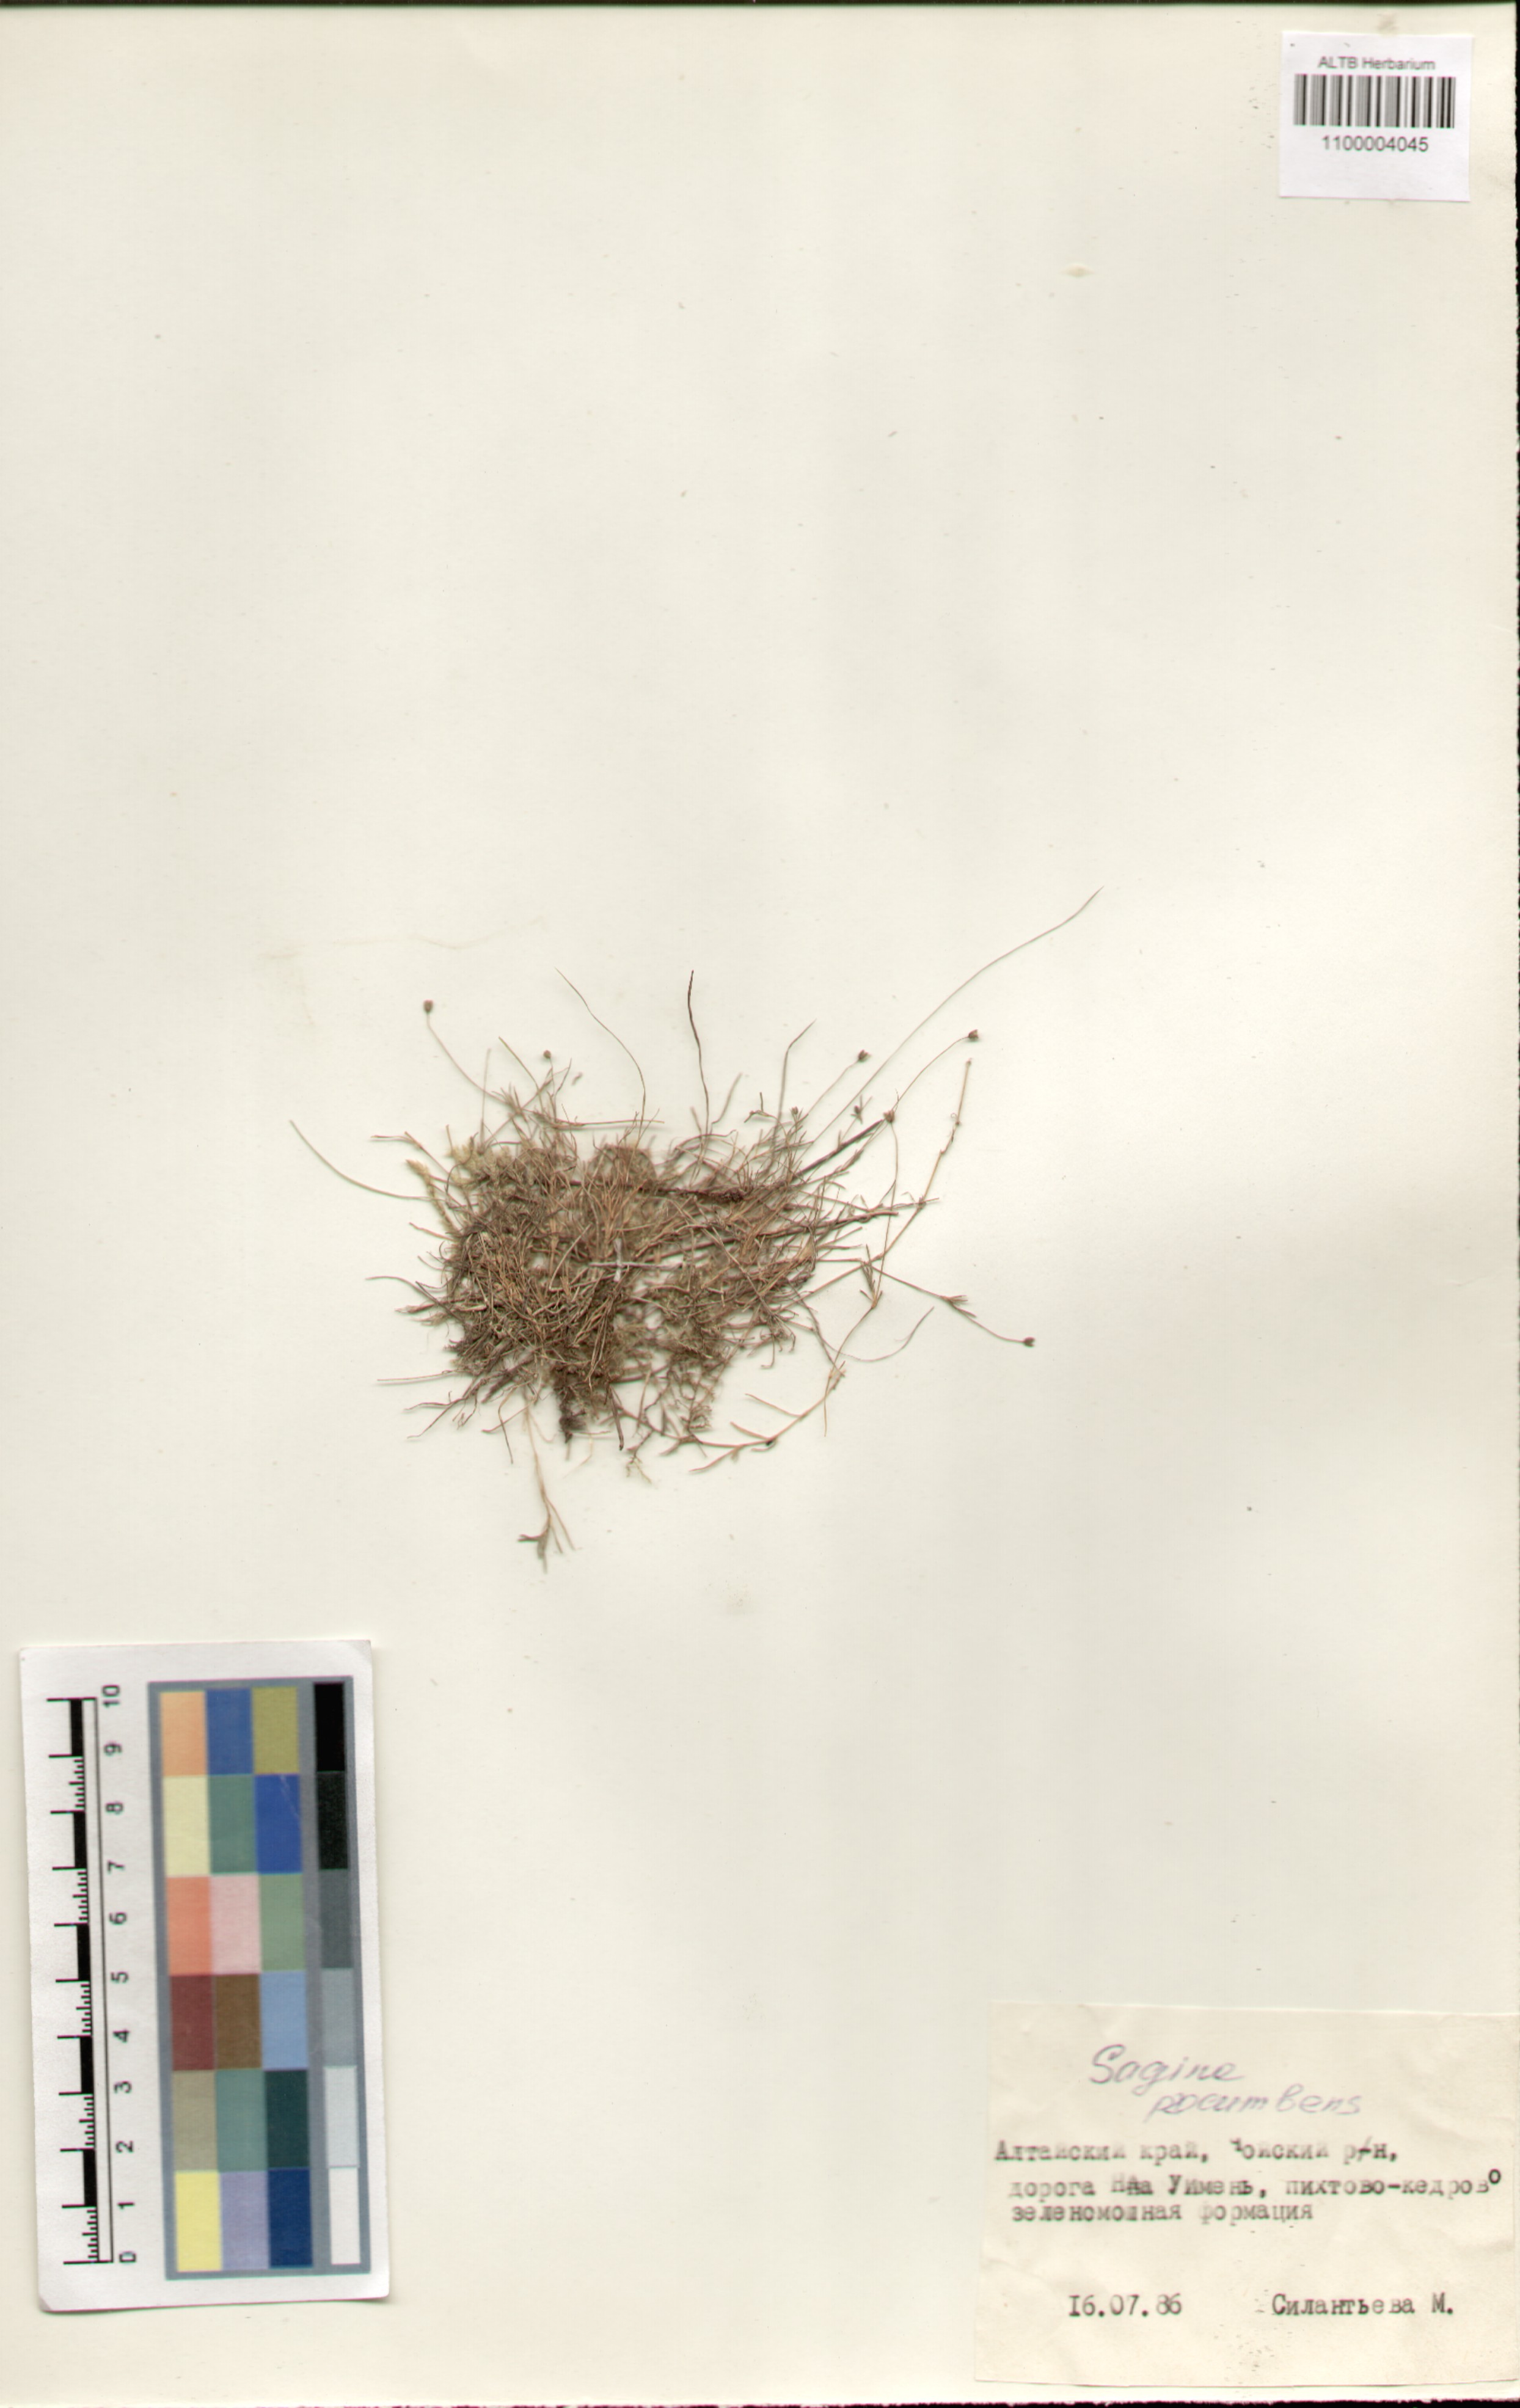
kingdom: Plantae
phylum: Tracheophyta
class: Magnoliopsida
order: Caryophyllales
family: Caryophyllaceae
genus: Sagina
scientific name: Sagina procumbens
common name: Procumbent pearlwort
